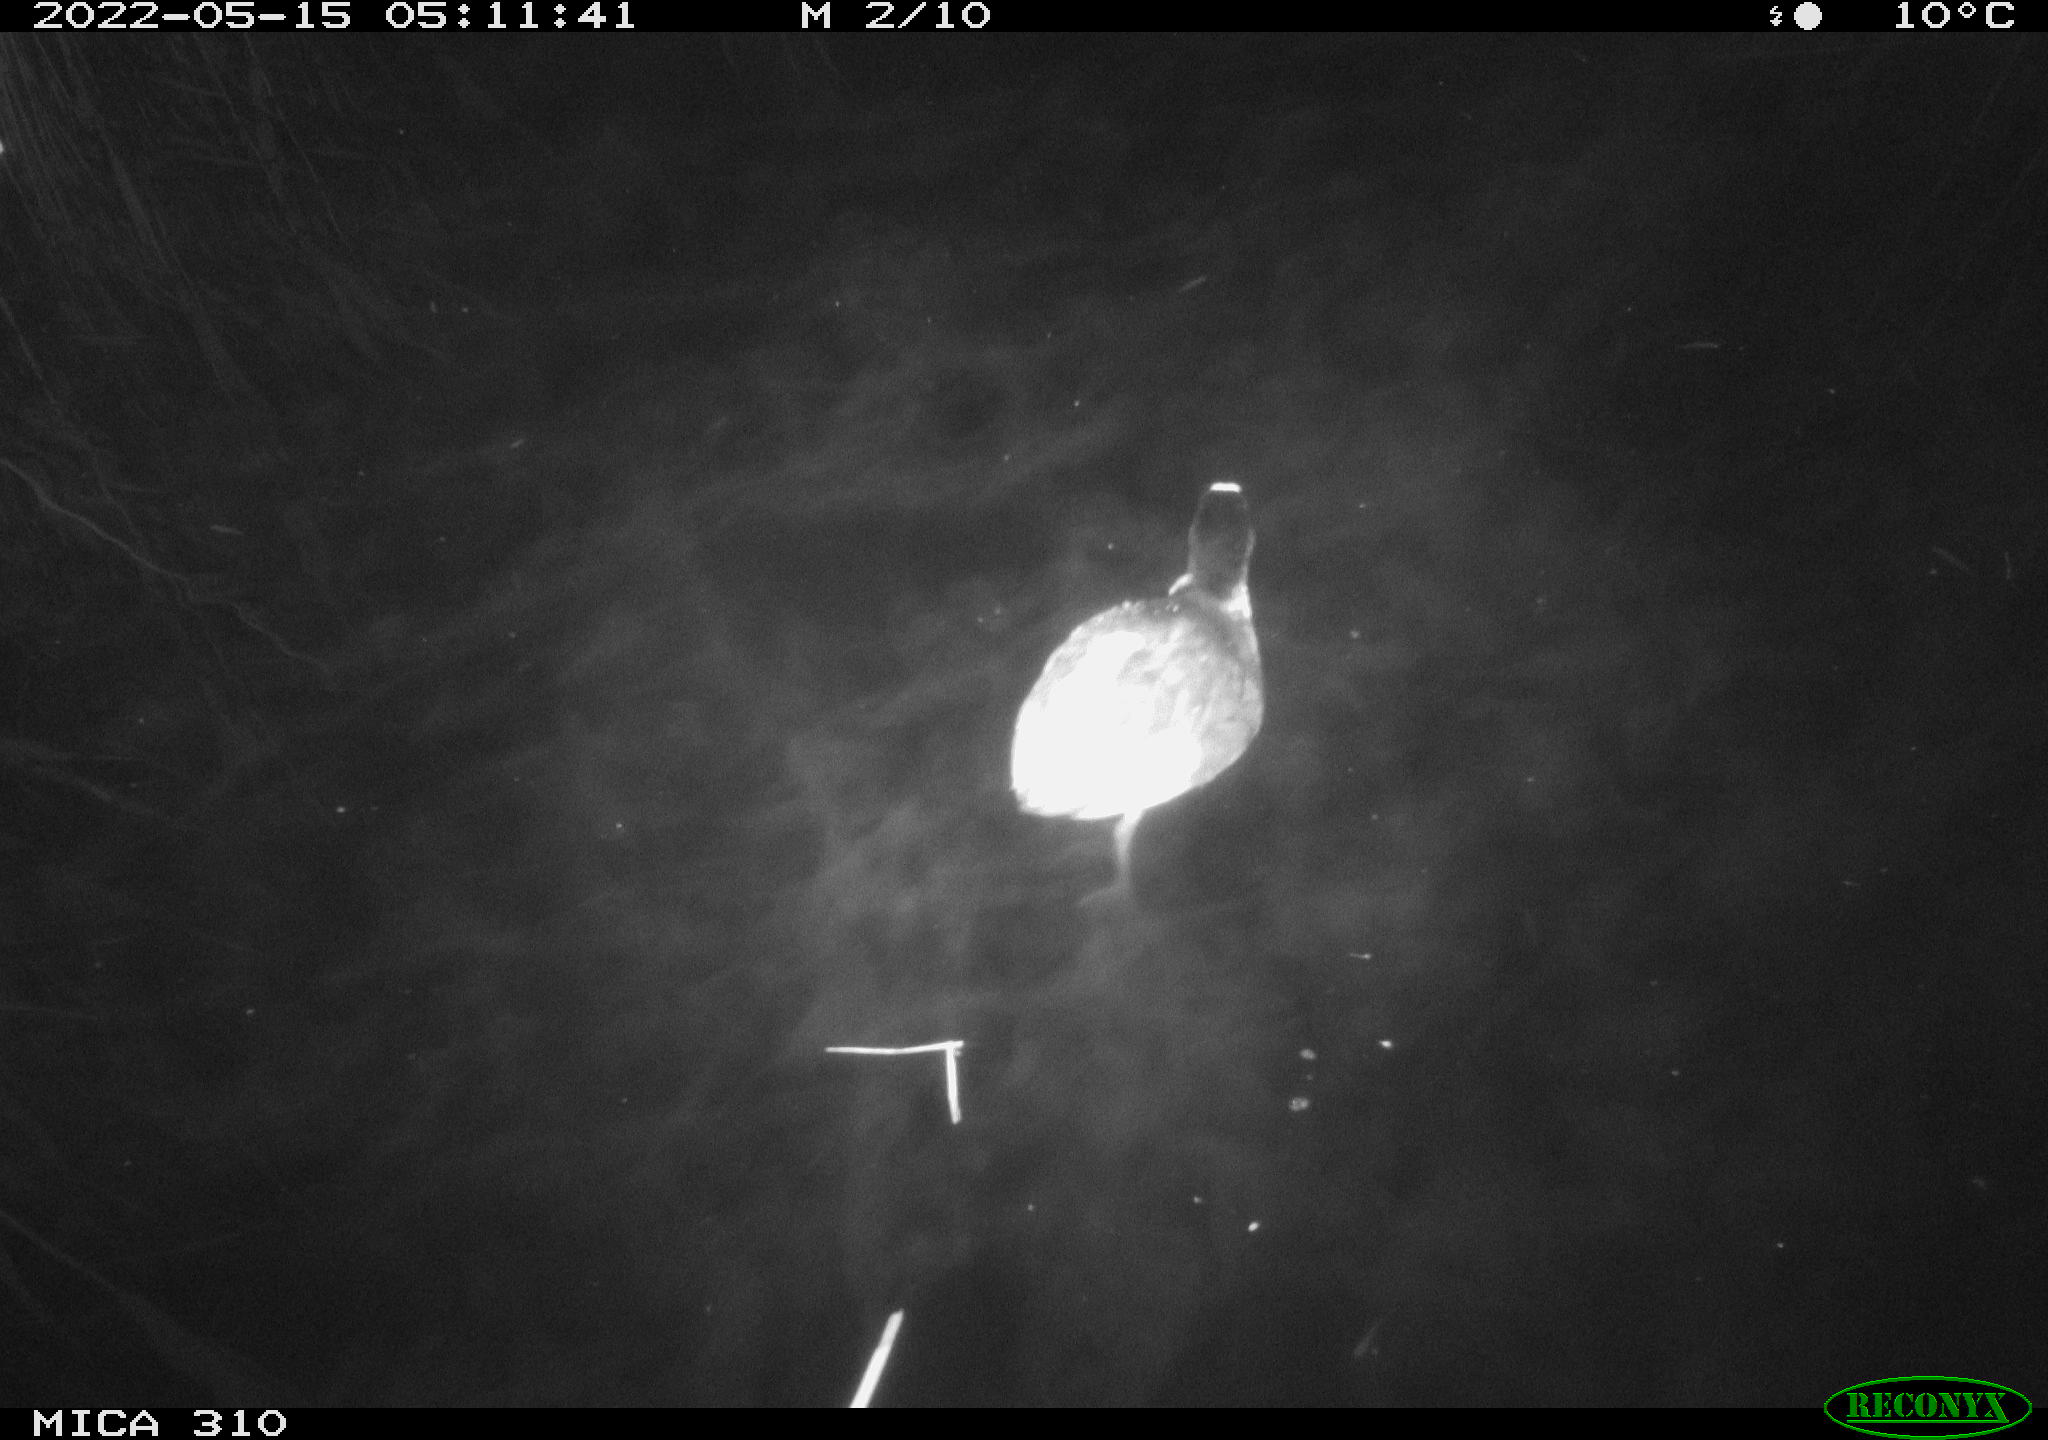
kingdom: Animalia
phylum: Chordata
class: Aves
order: Gruiformes
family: Rallidae
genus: Fulica
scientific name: Fulica atra
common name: Eurasian coot
